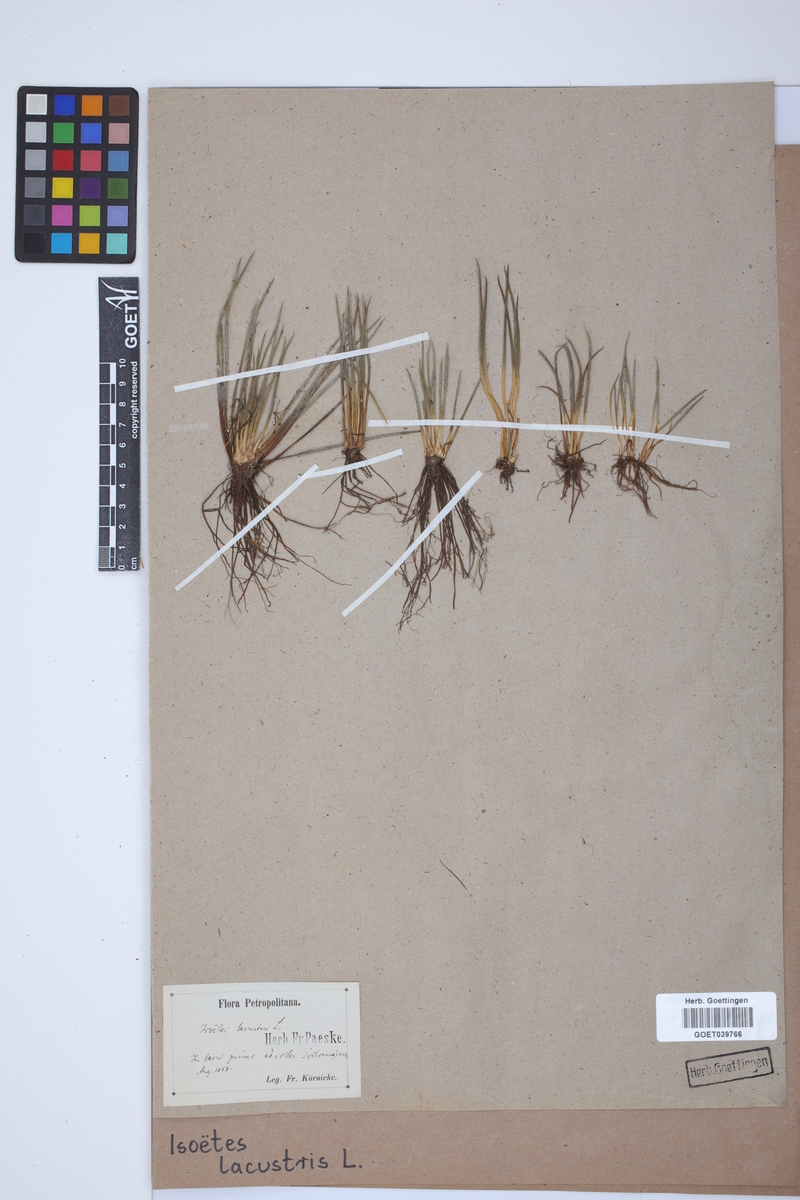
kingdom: Plantae
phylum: Tracheophyta
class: Lycopodiopsida
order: Isoetales
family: Isoetaceae
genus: Isoetes
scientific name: Isoetes lacustris
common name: Common quillwort
